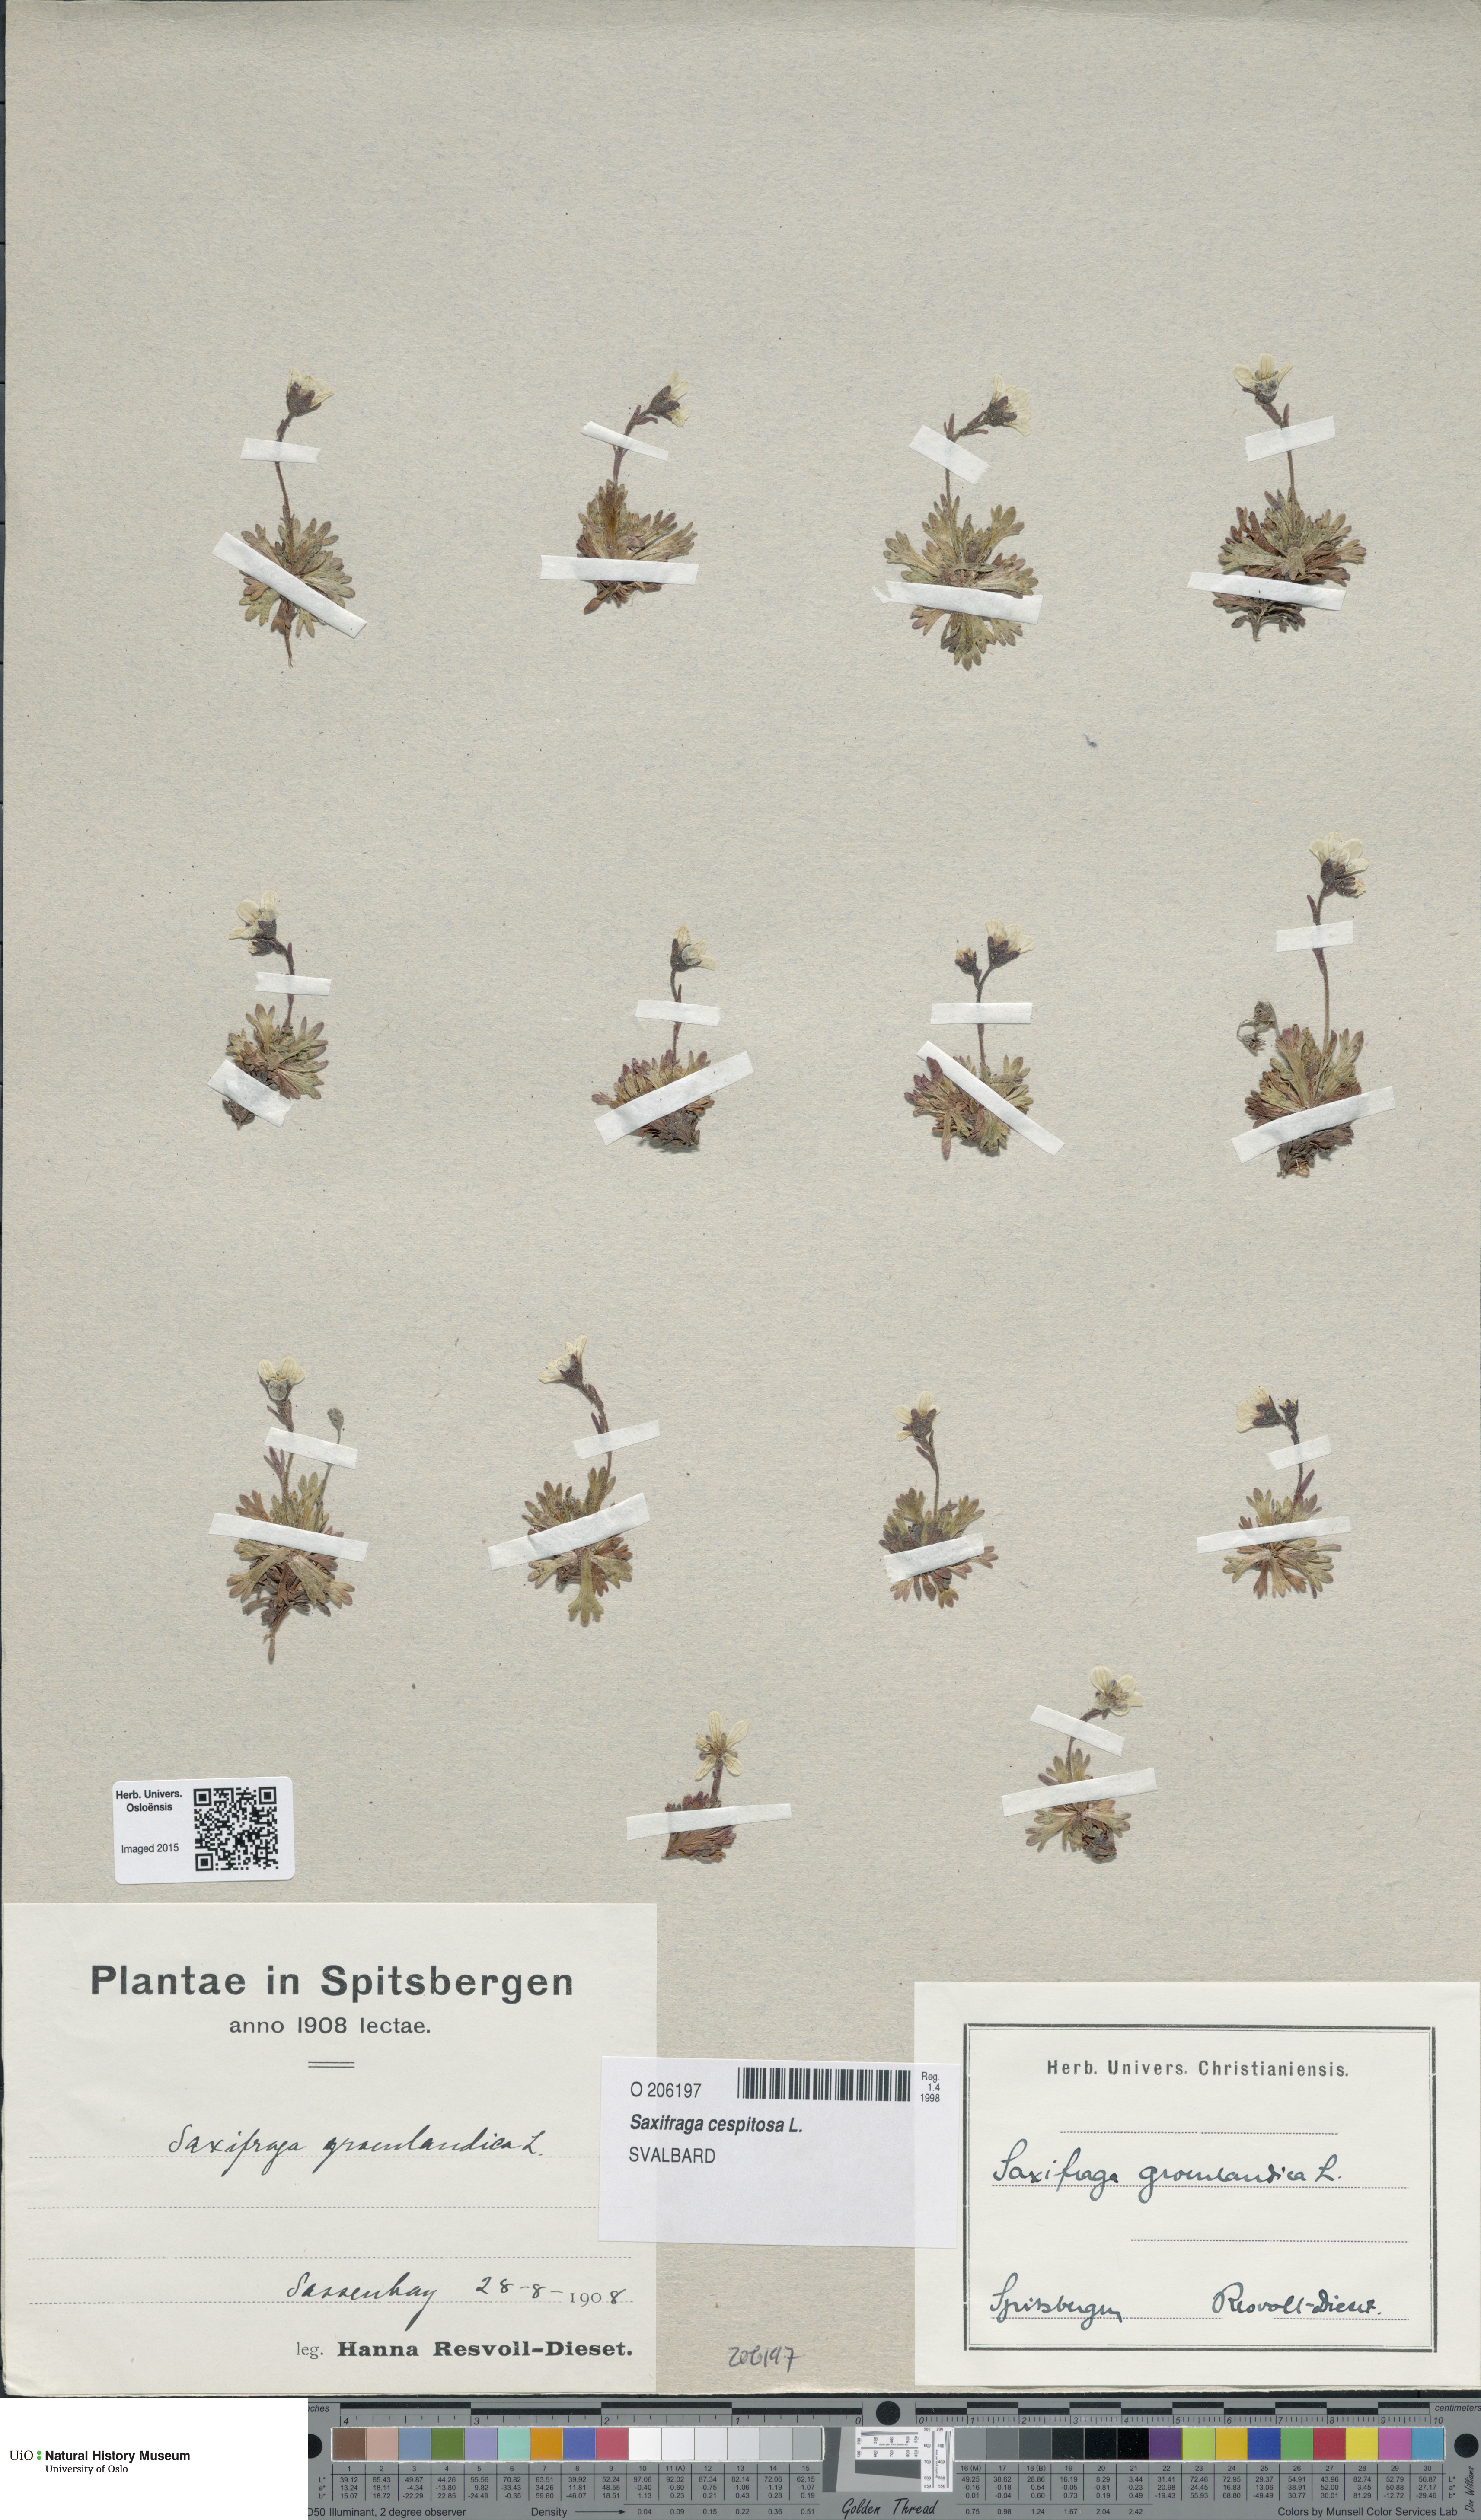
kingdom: Plantae
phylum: Tracheophyta
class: Magnoliopsida
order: Saxifragales
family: Saxifragaceae
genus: Saxifraga
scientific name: Saxifraga cespitosa
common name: Tufted saxifrage
